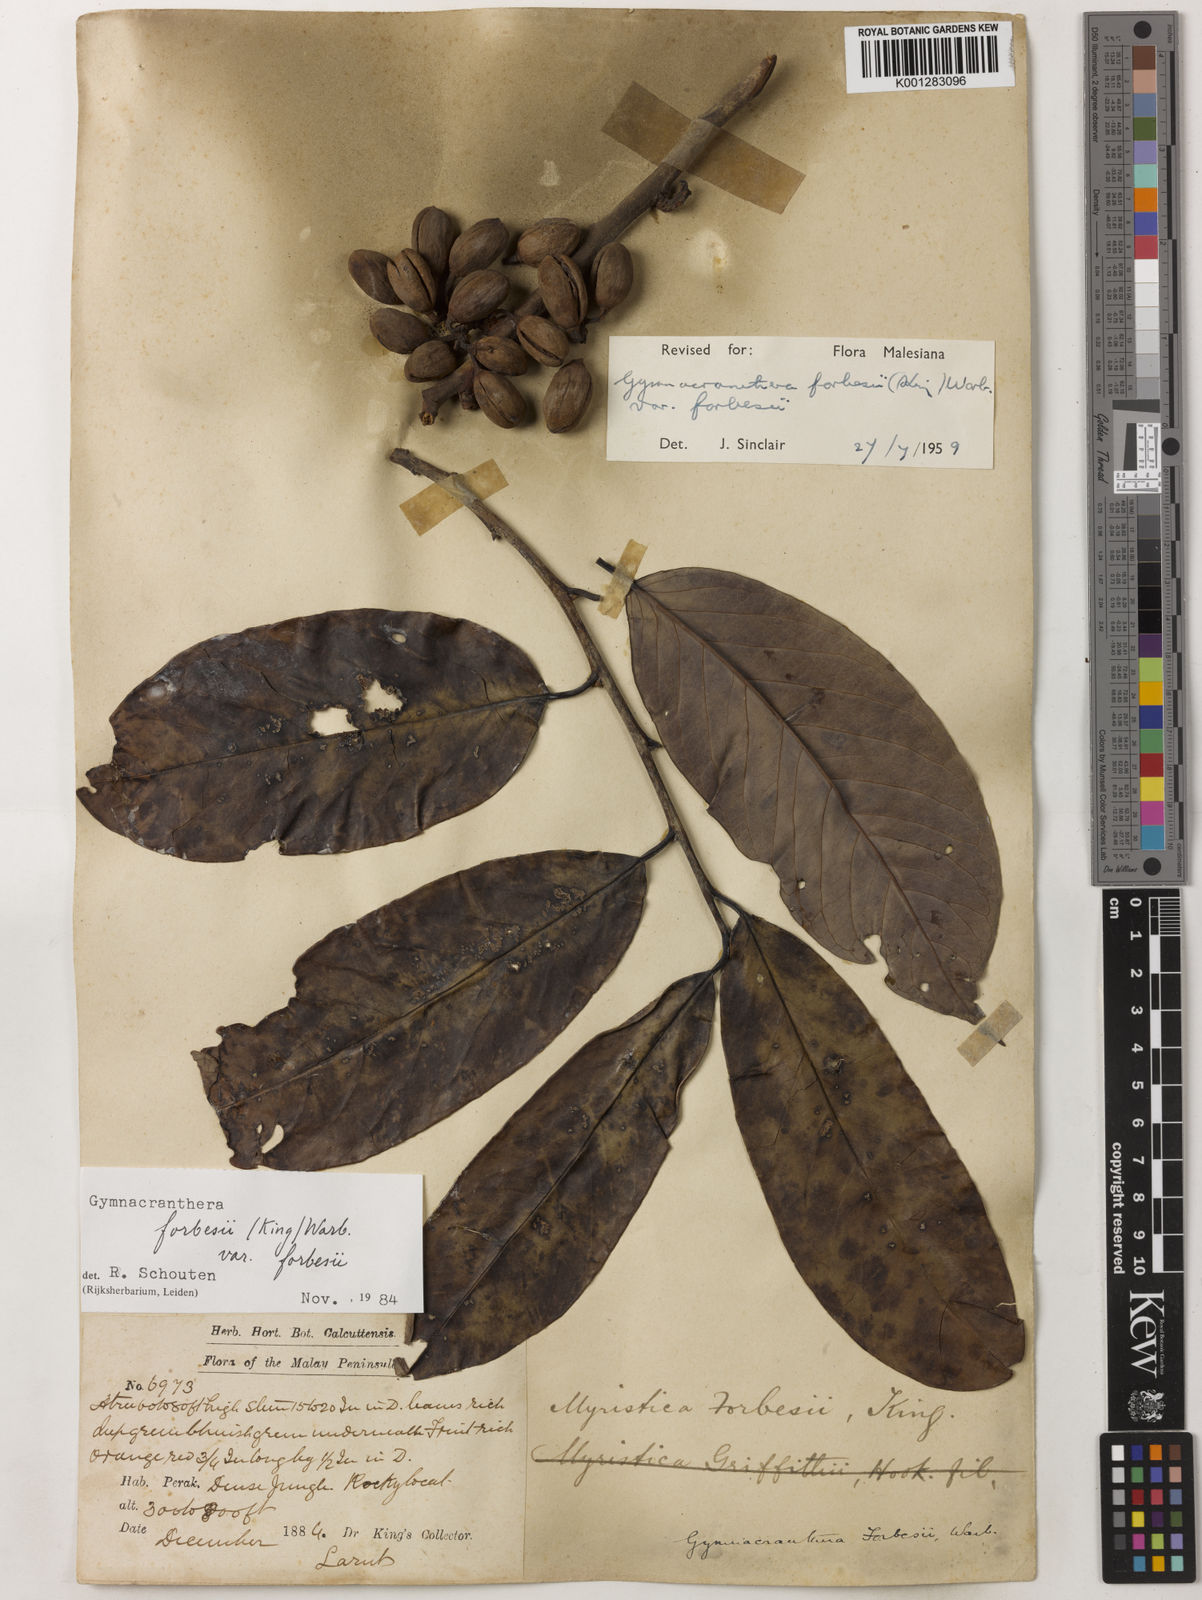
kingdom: Plantae
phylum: Tracheophyta
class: Magnoliopsida
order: Magnoliales
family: Myristicaceae
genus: Gymnacranthera
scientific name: Gymnacranthera forbesii
